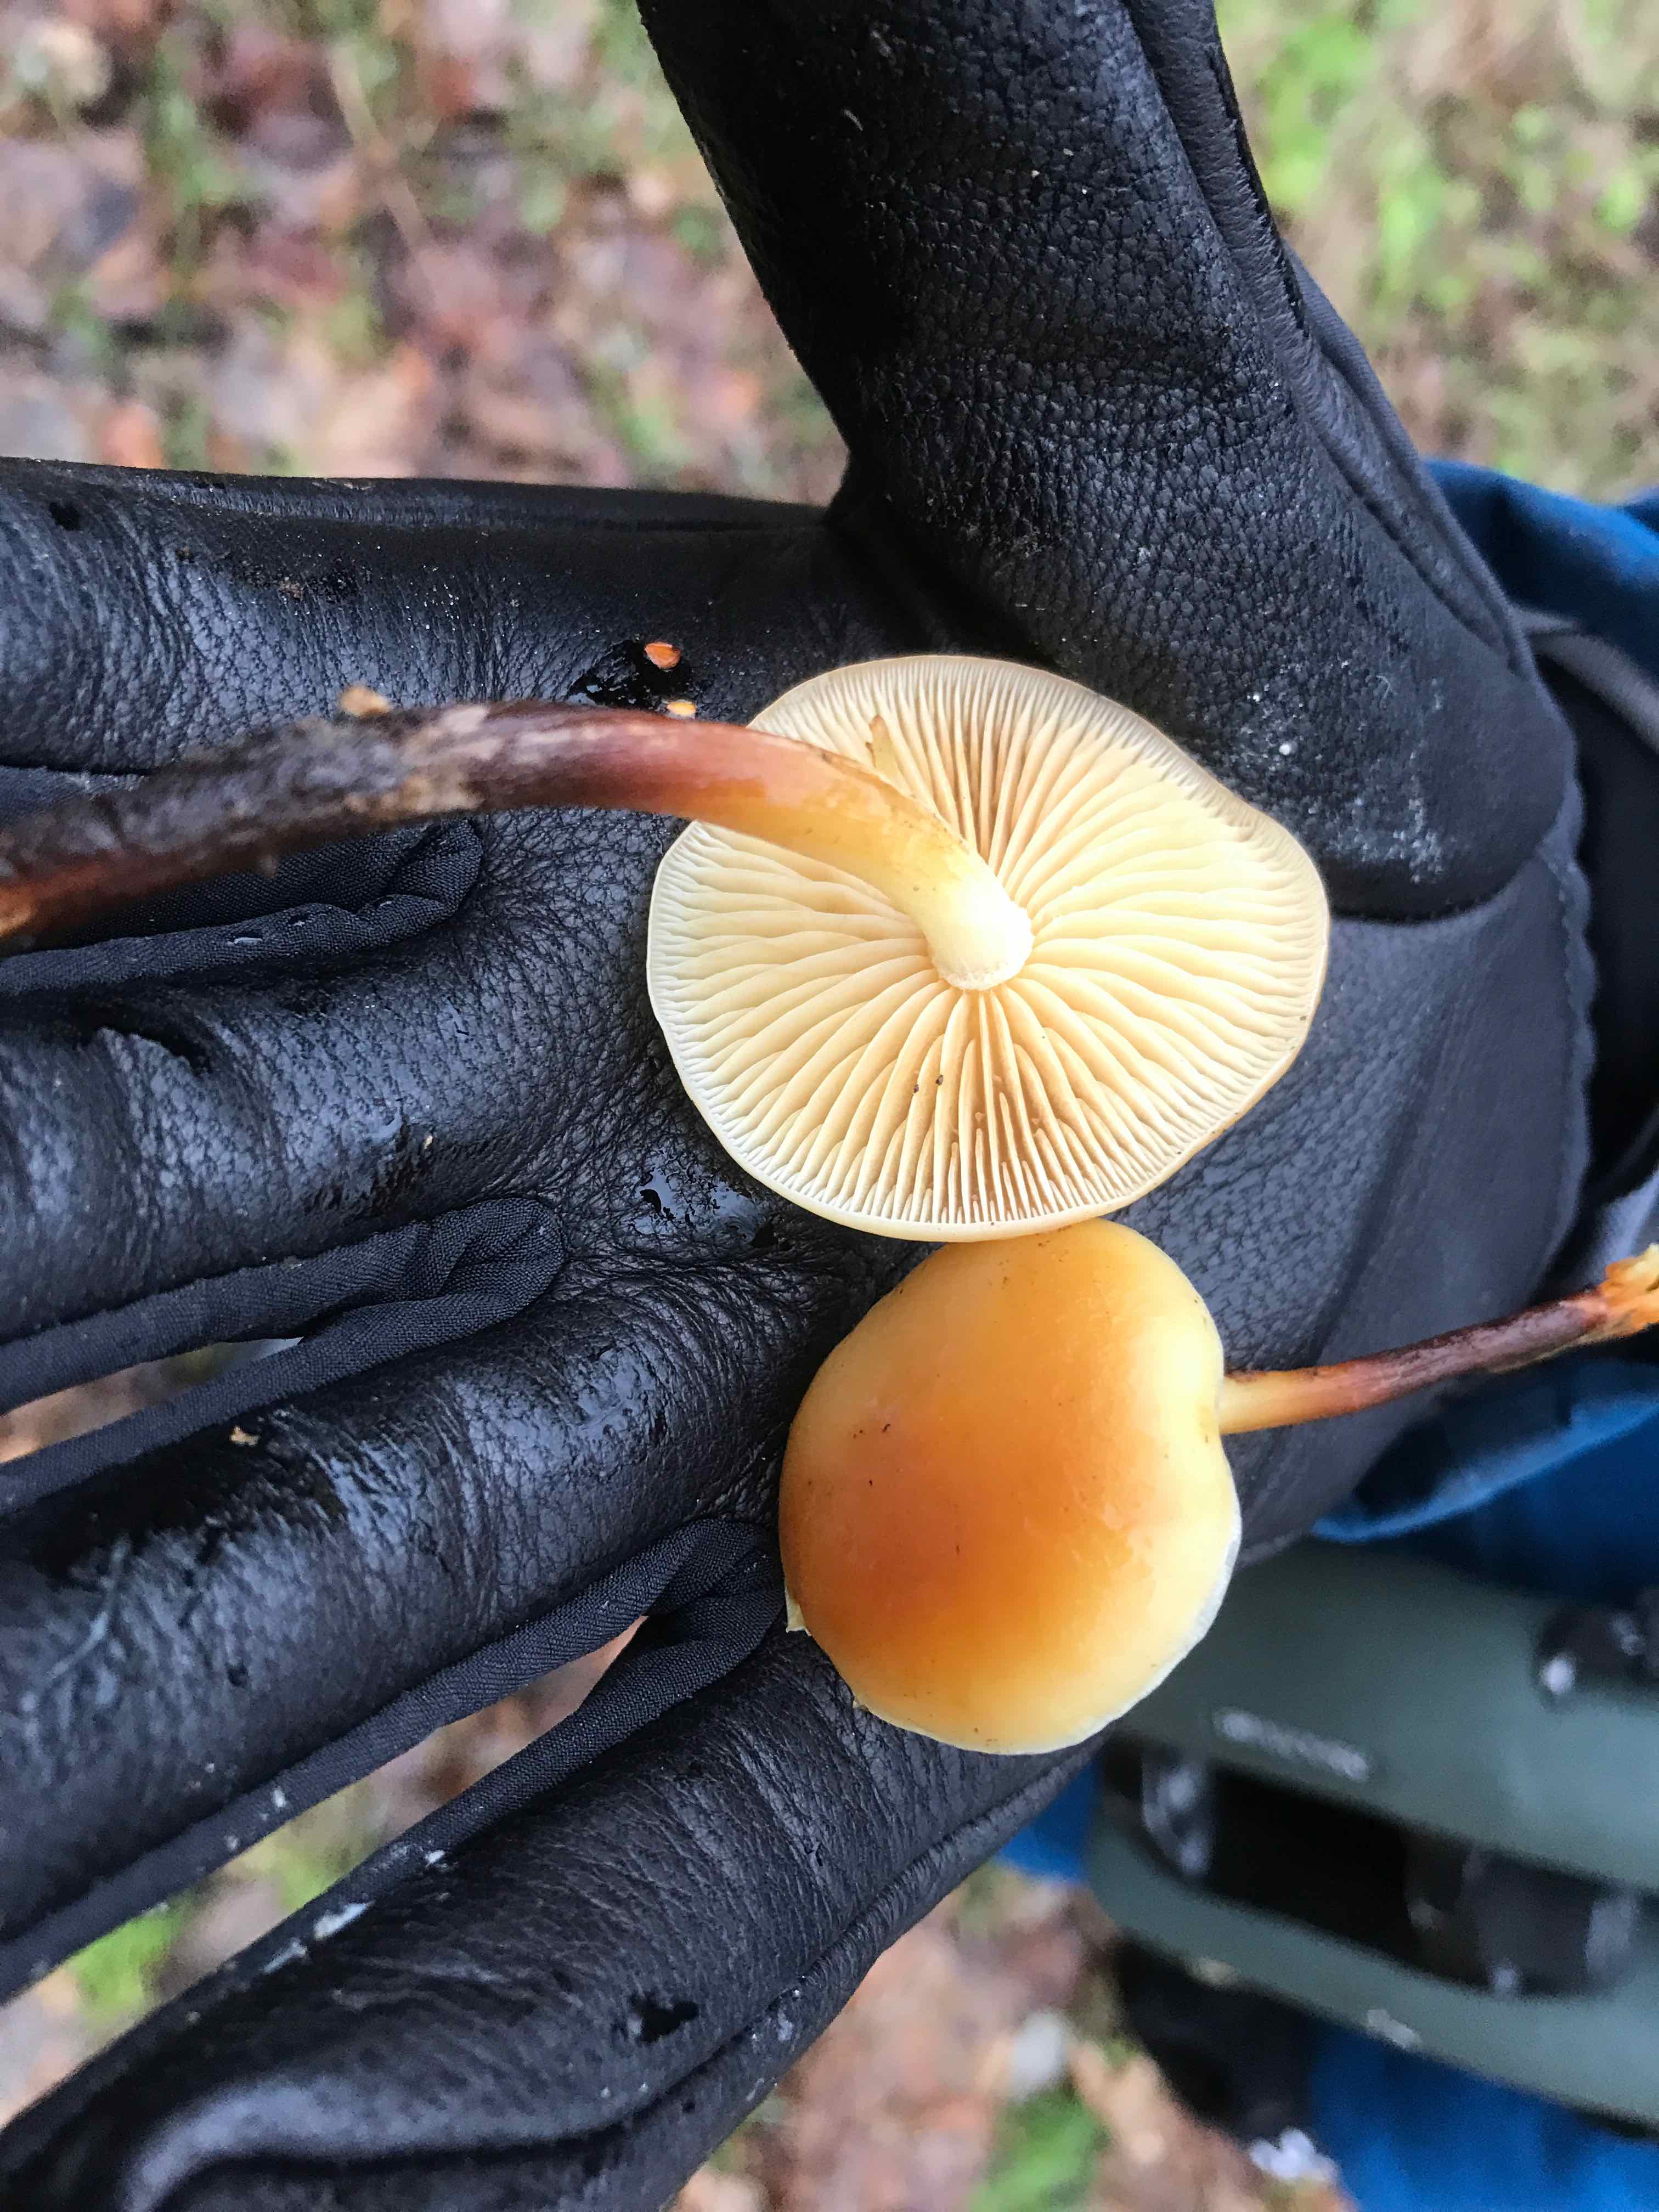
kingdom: Fungi
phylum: Basidiomycota
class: Agaricomycetes
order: Agaricales
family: Physalacriaceae
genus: Flammulina
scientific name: Flammulina
